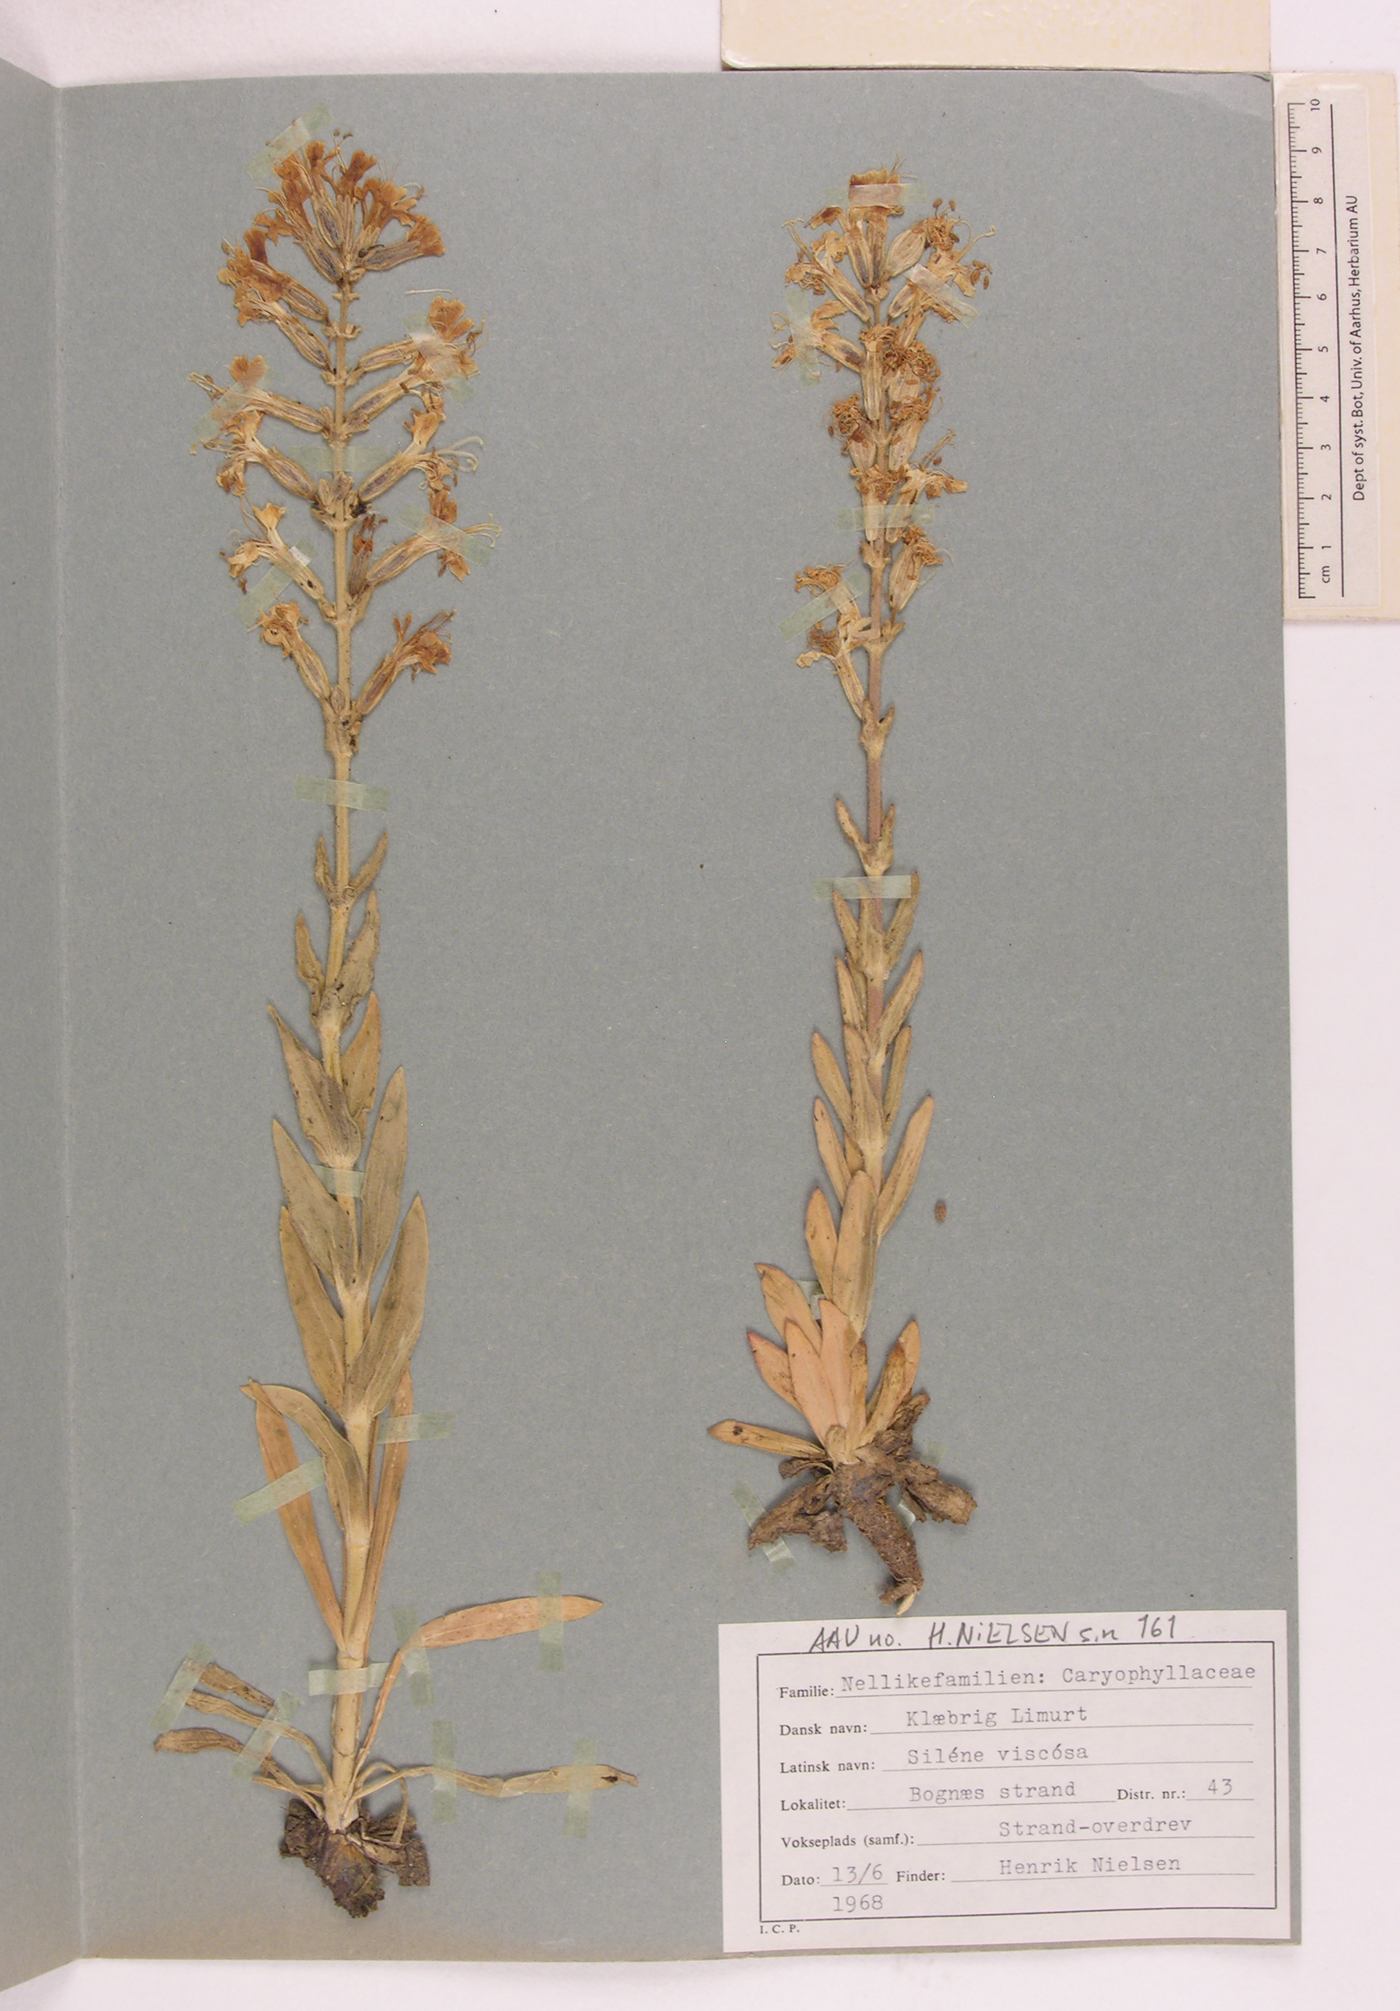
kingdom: Plantae
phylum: Tracheophyta
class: Magnoliopsida
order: Caryophyllales
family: Caryophyllaceae
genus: Silene
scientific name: Silene viscosa
